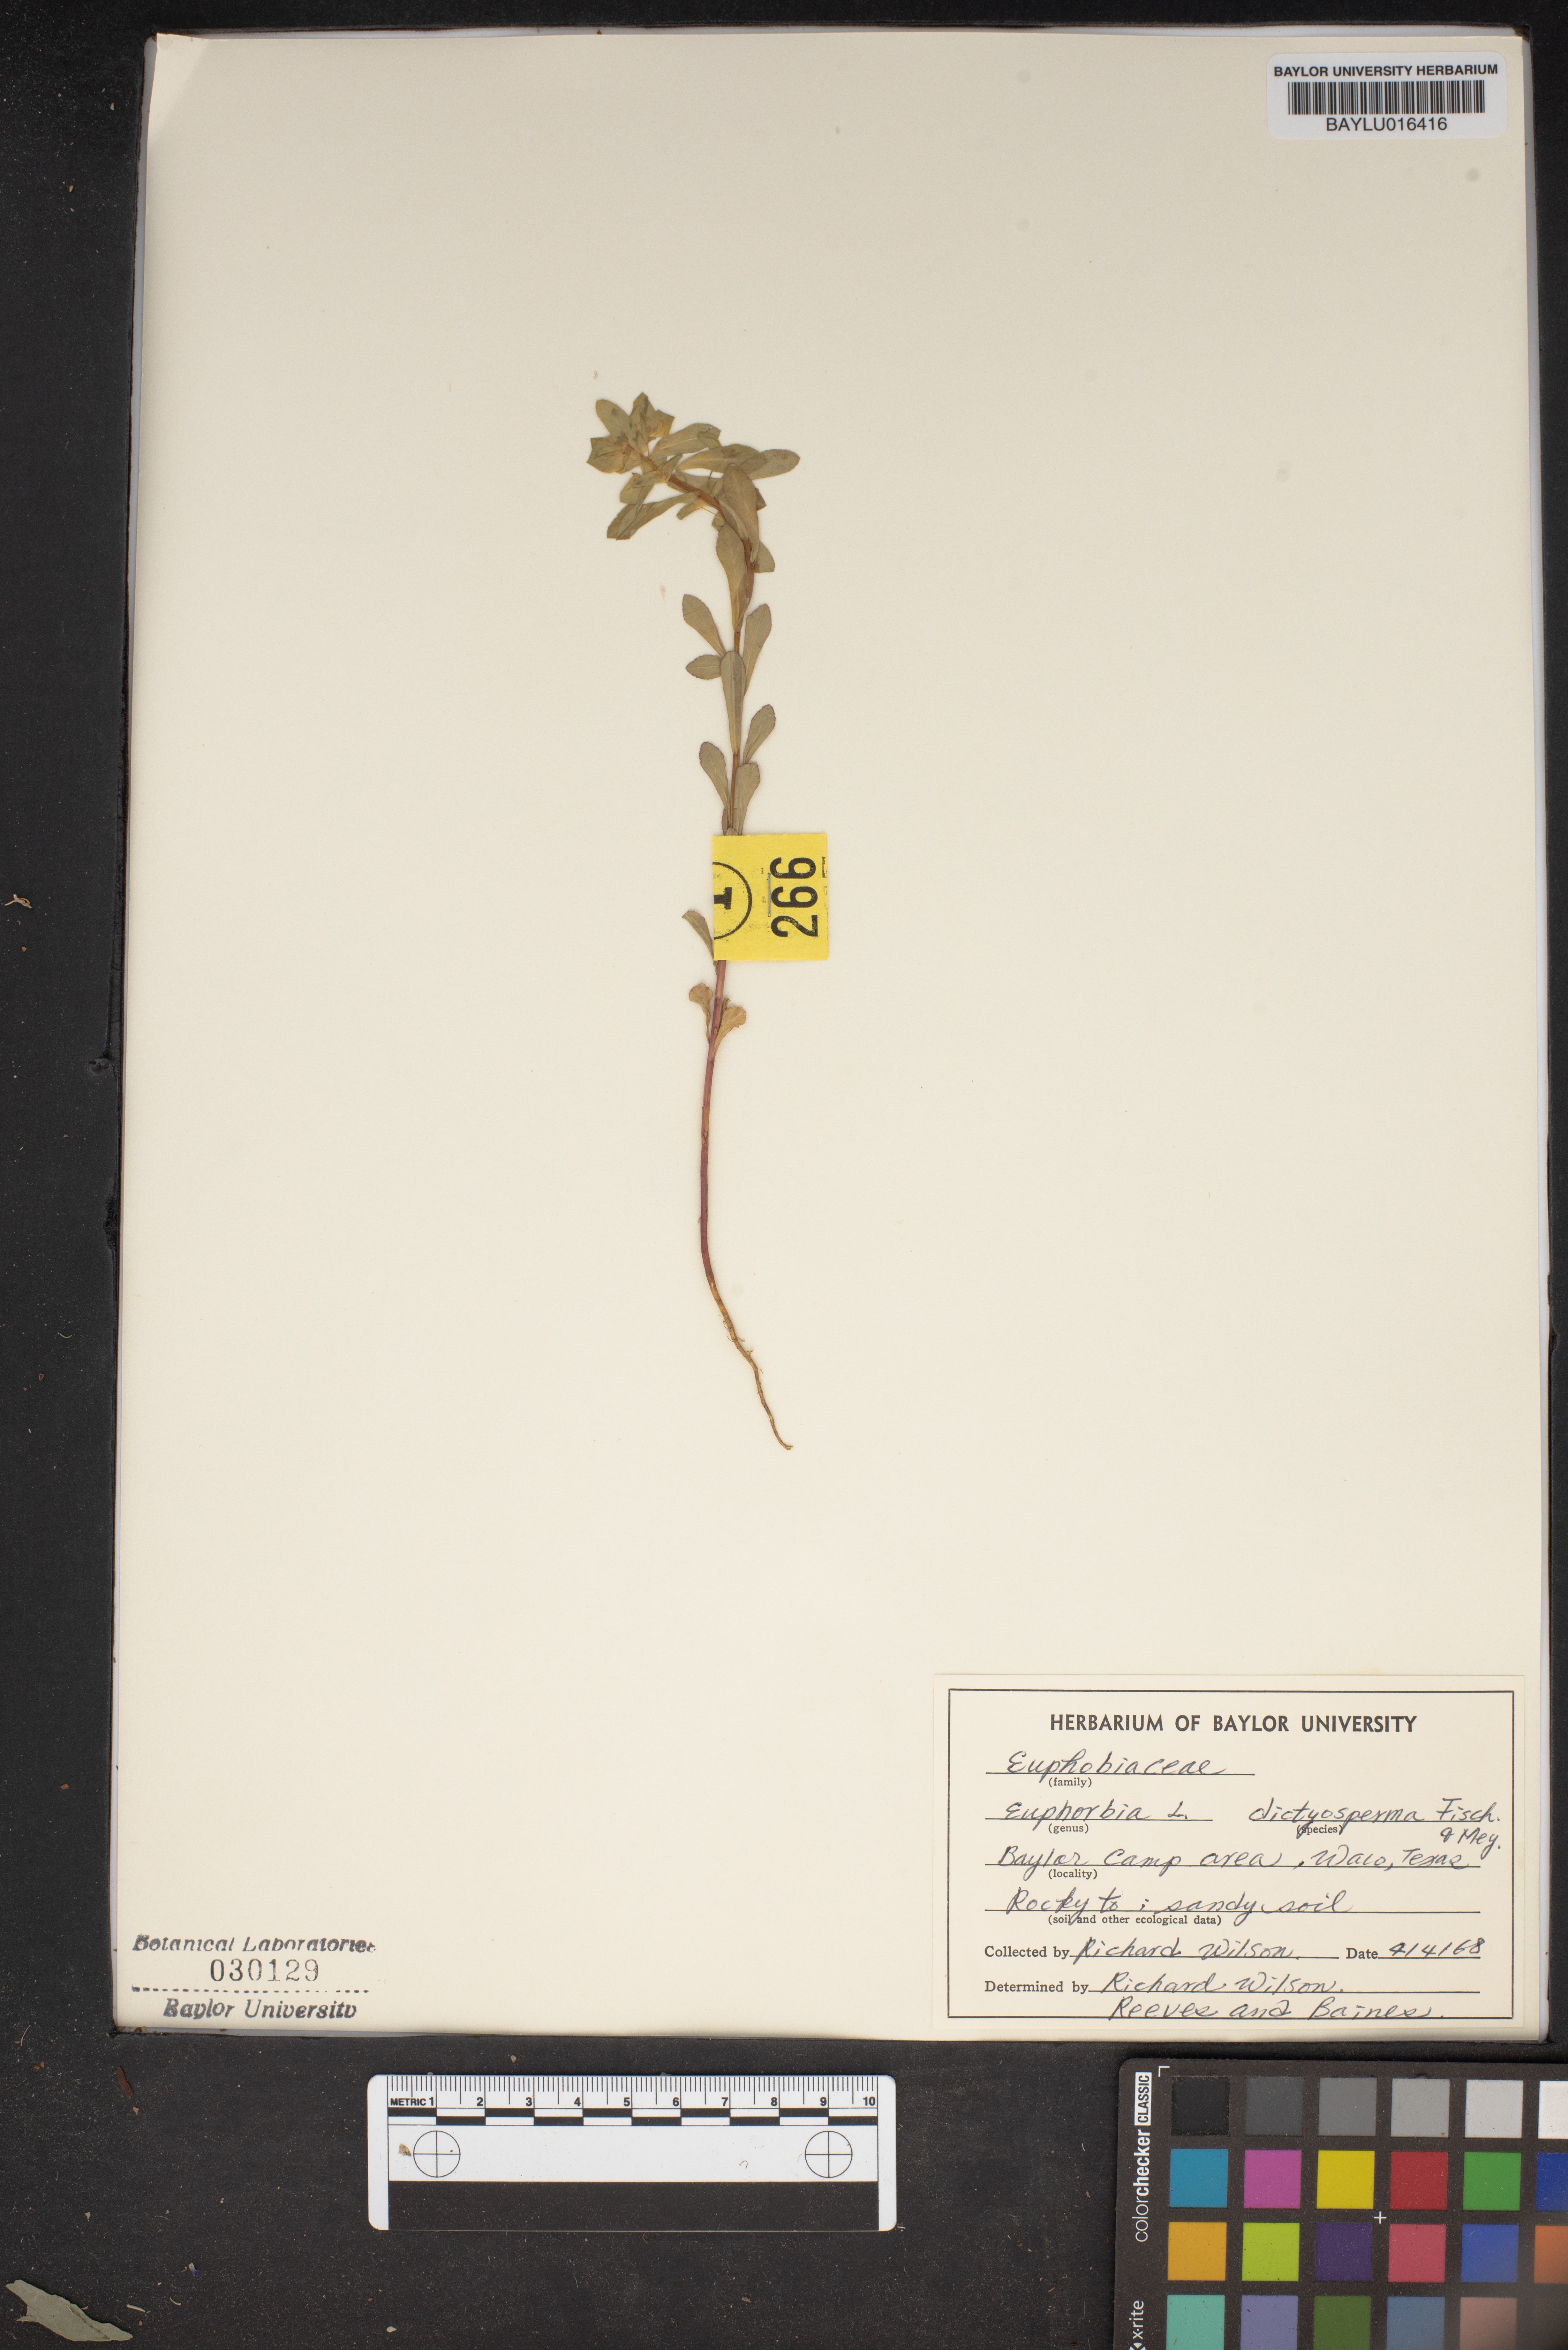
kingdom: Plantae
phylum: Tracheophyta
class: Magnoliopsida
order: Malpighiales
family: Euphorbiaceae
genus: Euphorbia
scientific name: Euphorbia spathulata
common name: Blunt spurge
